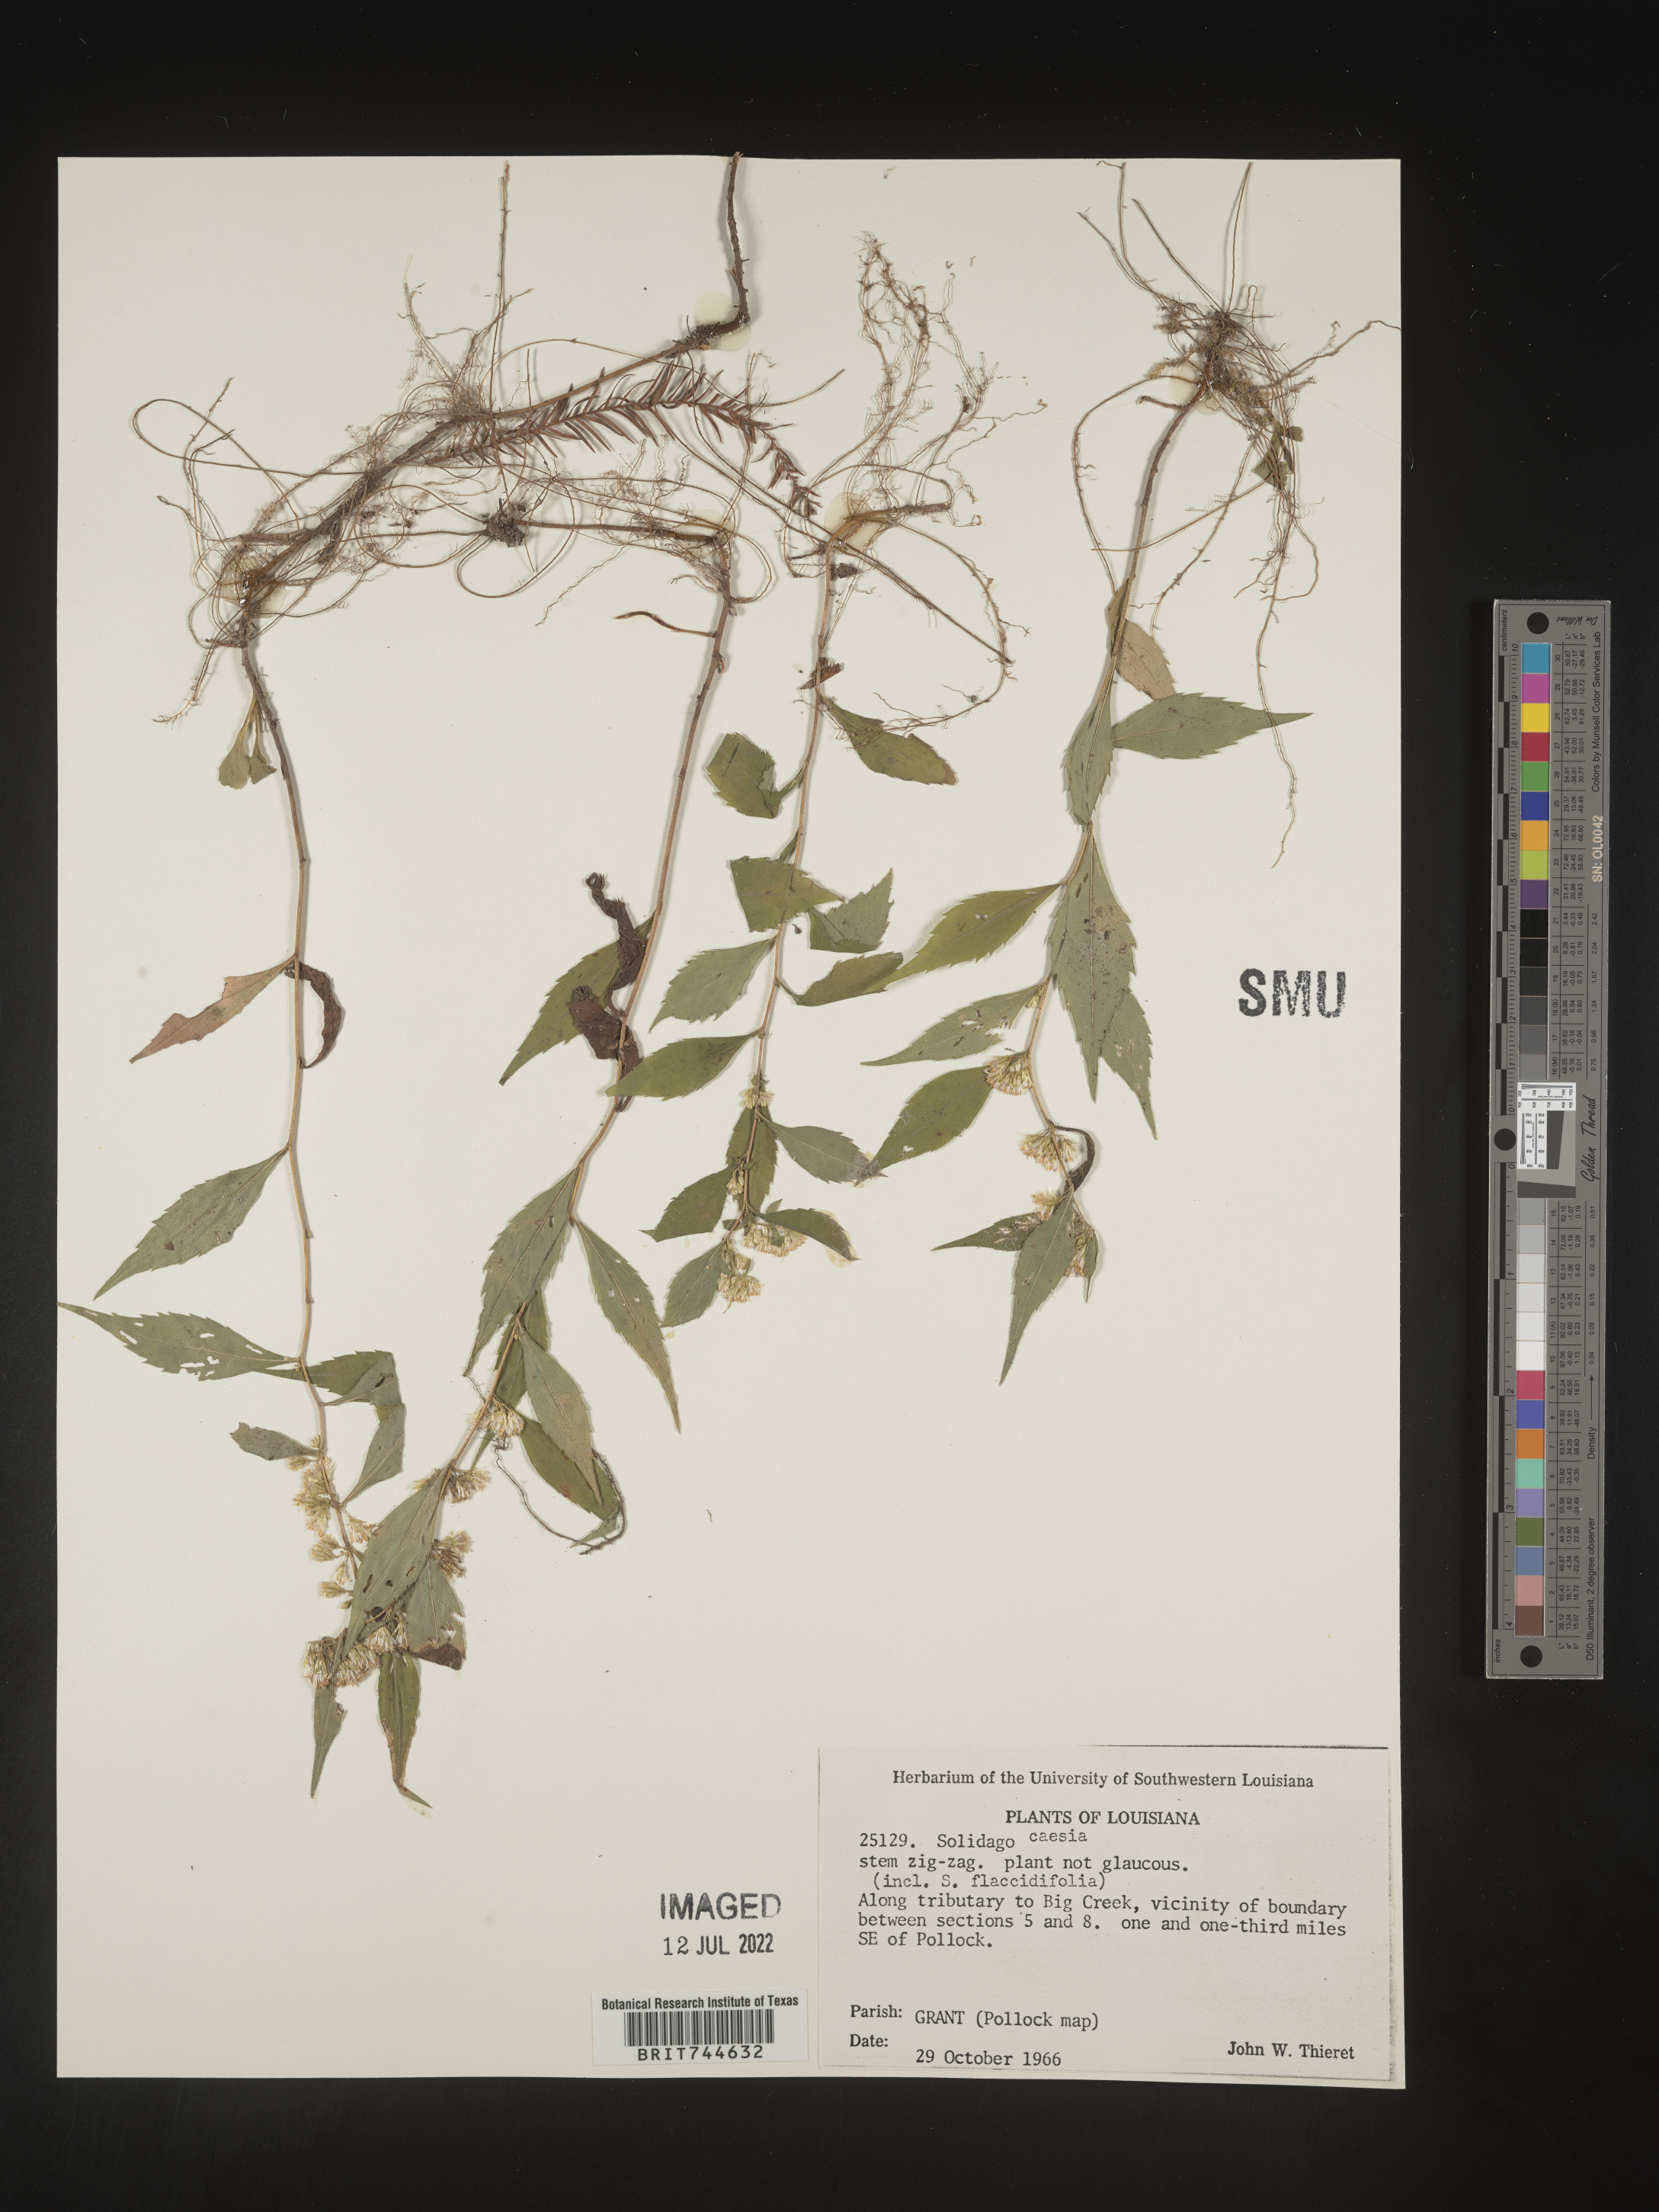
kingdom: Plantae
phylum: Tracheophyta
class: Magnoliopsida
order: Asterales
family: Asteraceae
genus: Solidago
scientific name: Solidago caesia
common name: Woodland goldenrod
